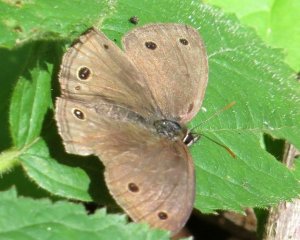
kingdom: Animalia
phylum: Arthropoda
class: Insecta
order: Lepidoptera
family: Nymphalidae
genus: Euptychia
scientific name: Euptychia cymela
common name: Little Wood Satyr
